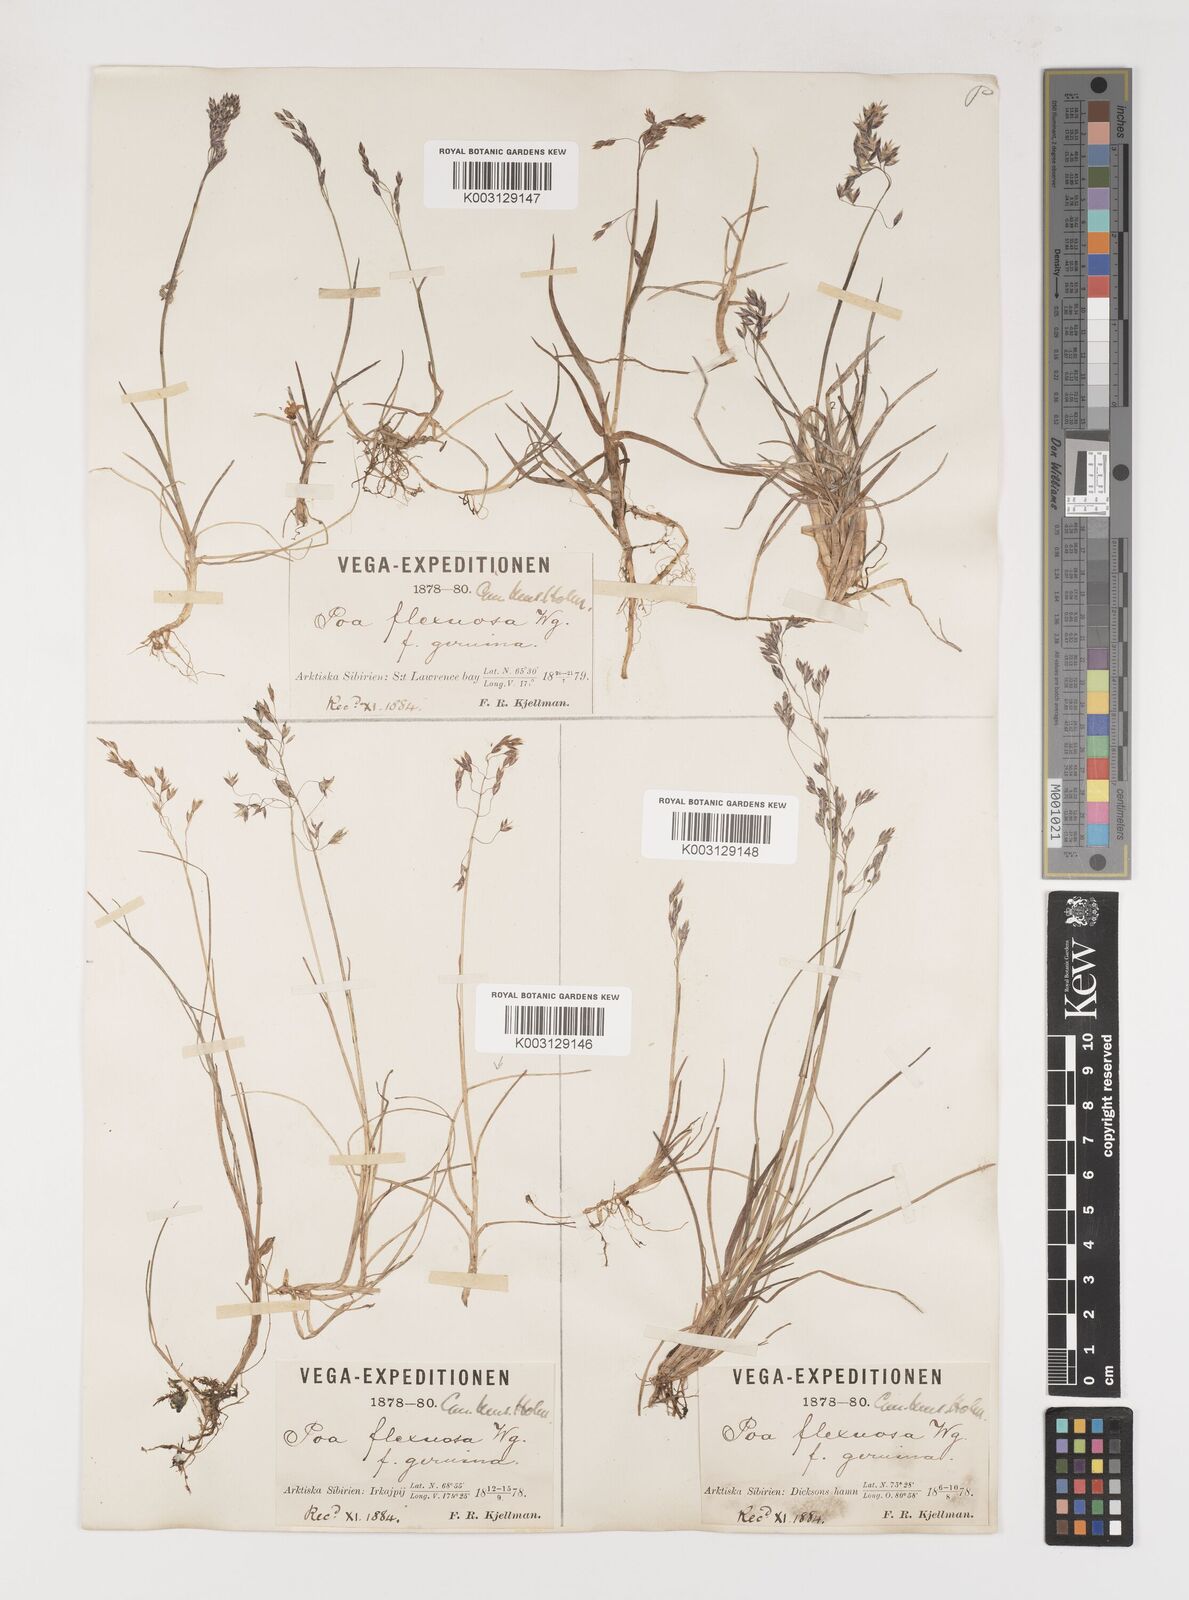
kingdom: Plantae
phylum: Tracheophyta
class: Liliopsida
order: Poales
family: Poaceae
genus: Poa
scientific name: Poa arctica
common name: Arctic bluegrass
